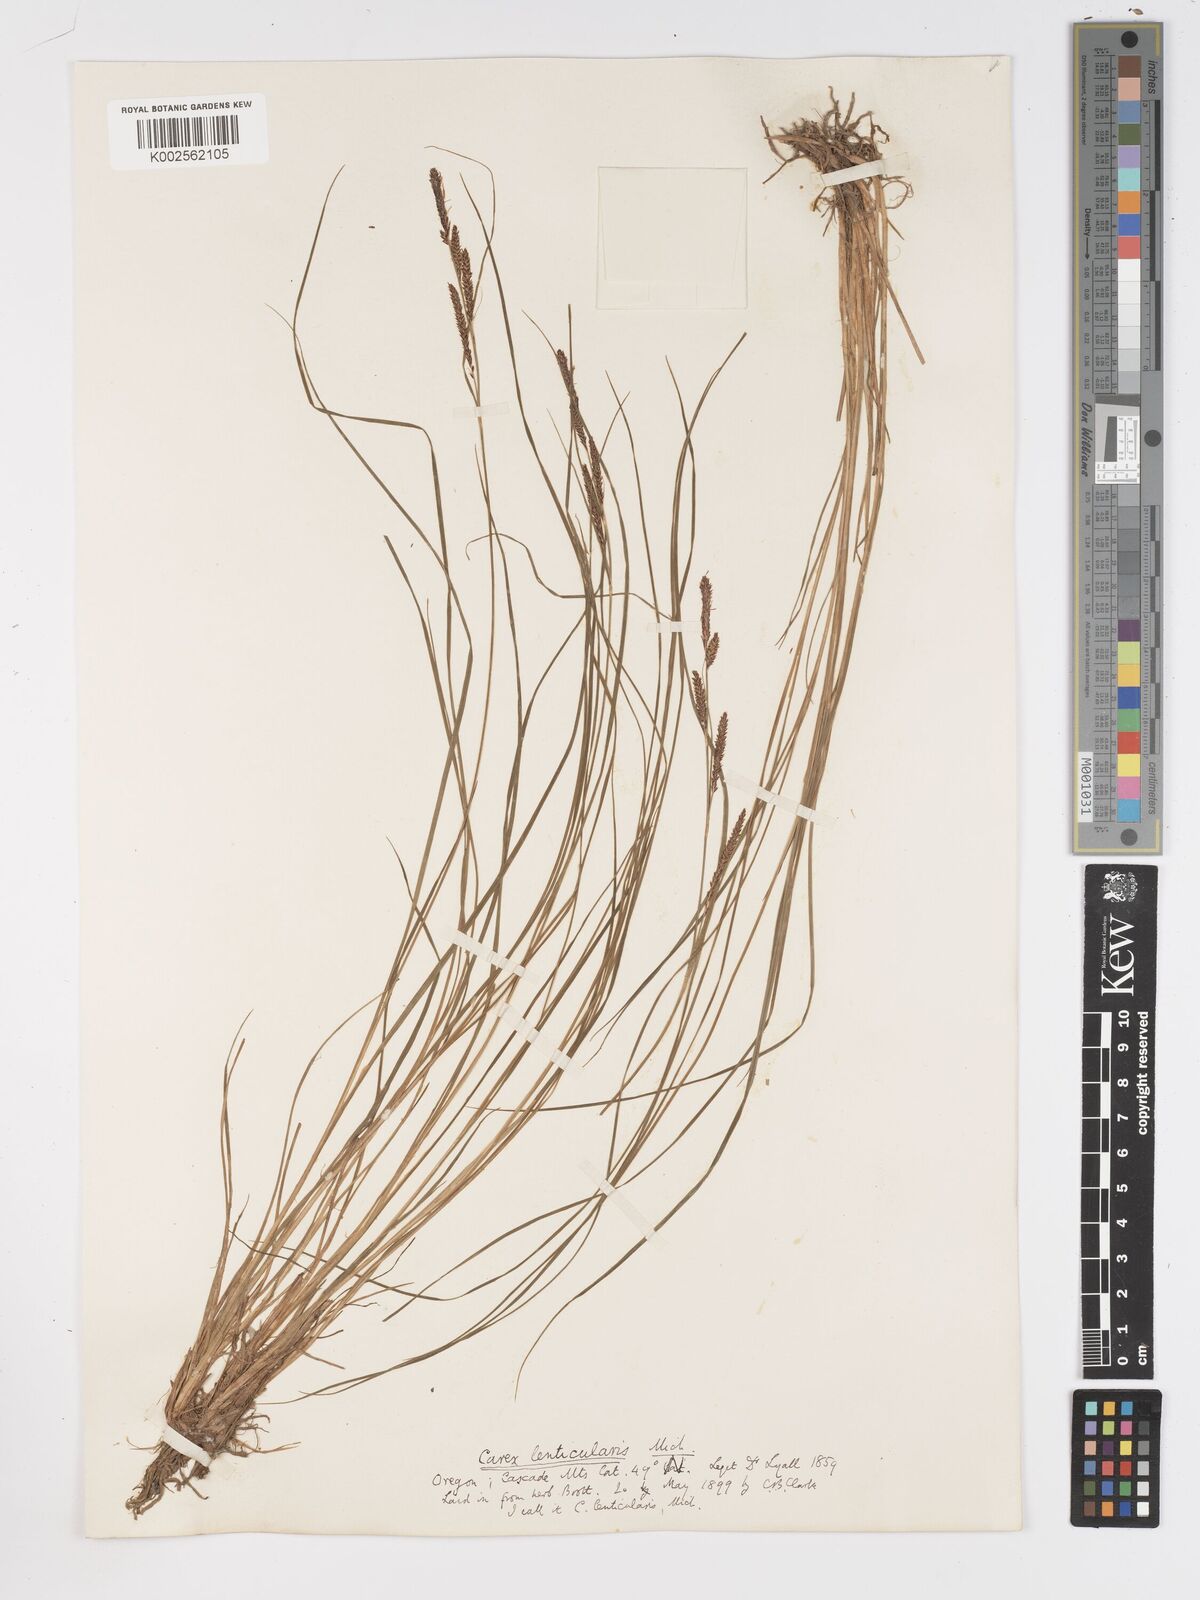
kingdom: Plantae
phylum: Tracheophyta
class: Liliopsida
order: Poales
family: Cyperaceae
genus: Carex
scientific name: Carex lenticularis
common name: Lakeshore sedge
